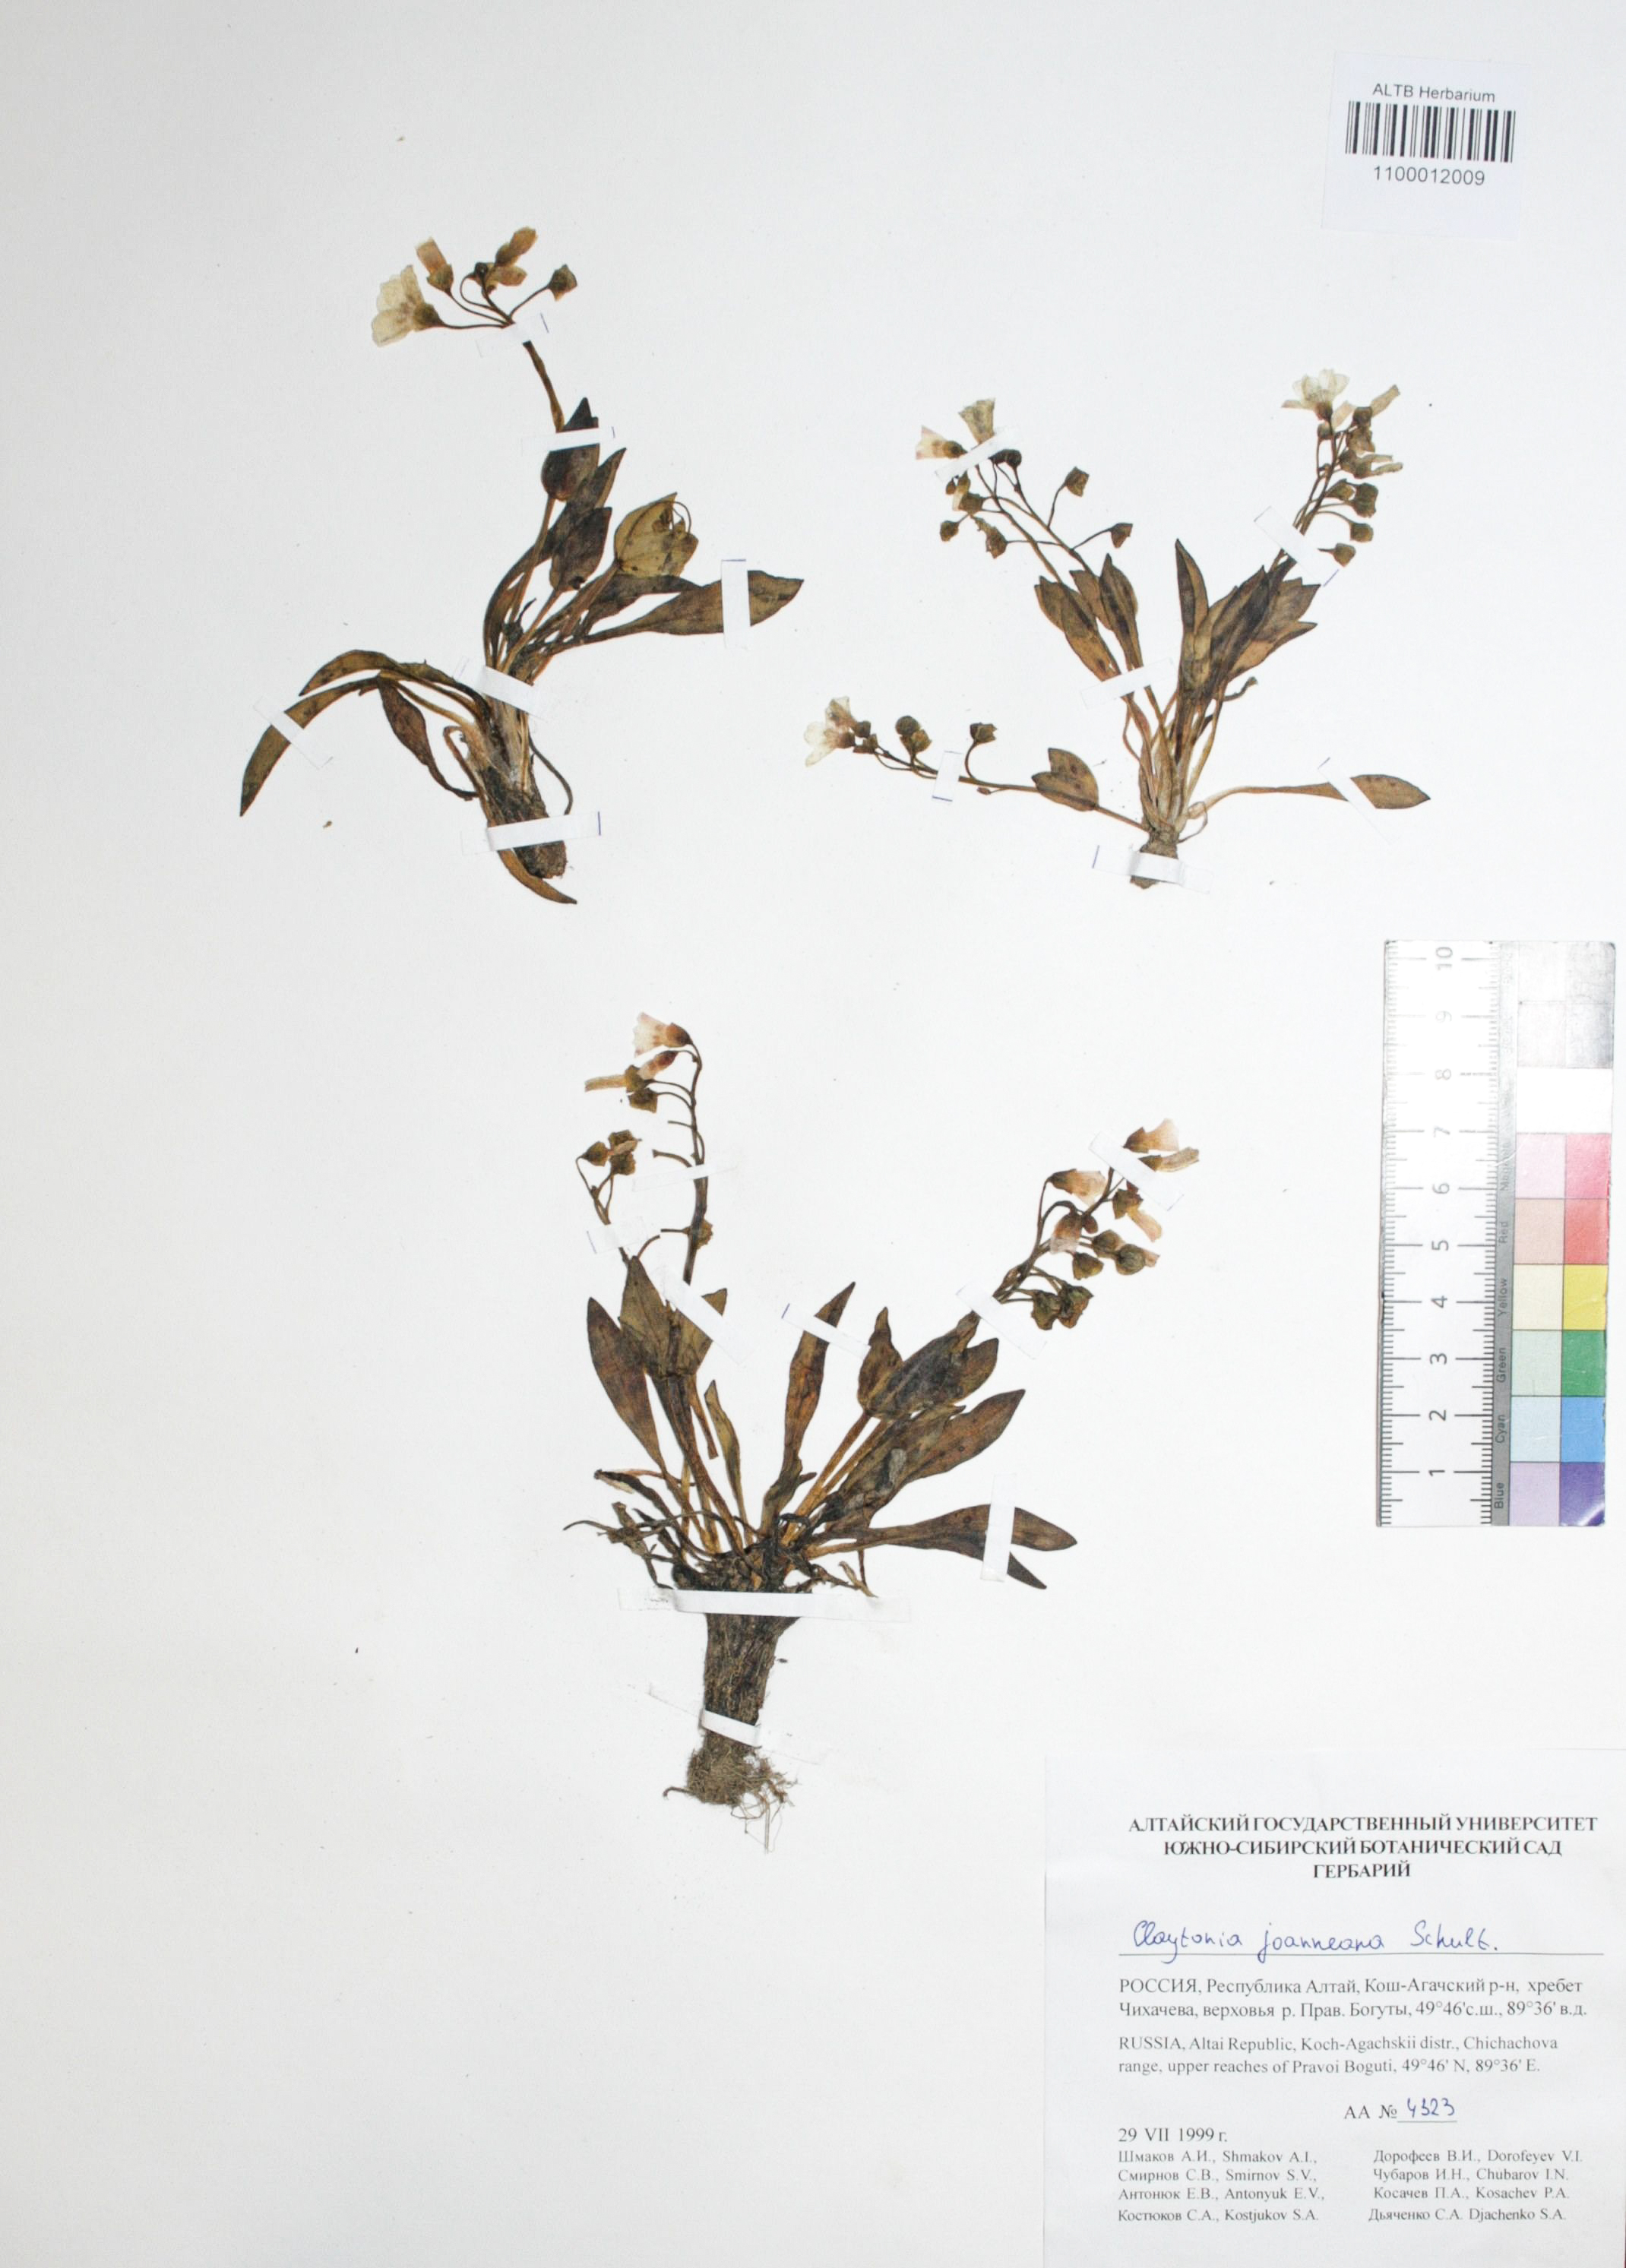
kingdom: Plantae
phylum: Tracheophyta
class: Magnoliopsida
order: Caryophyllales
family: Montiaceae
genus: Claytonia
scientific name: Claytonia joanneana
